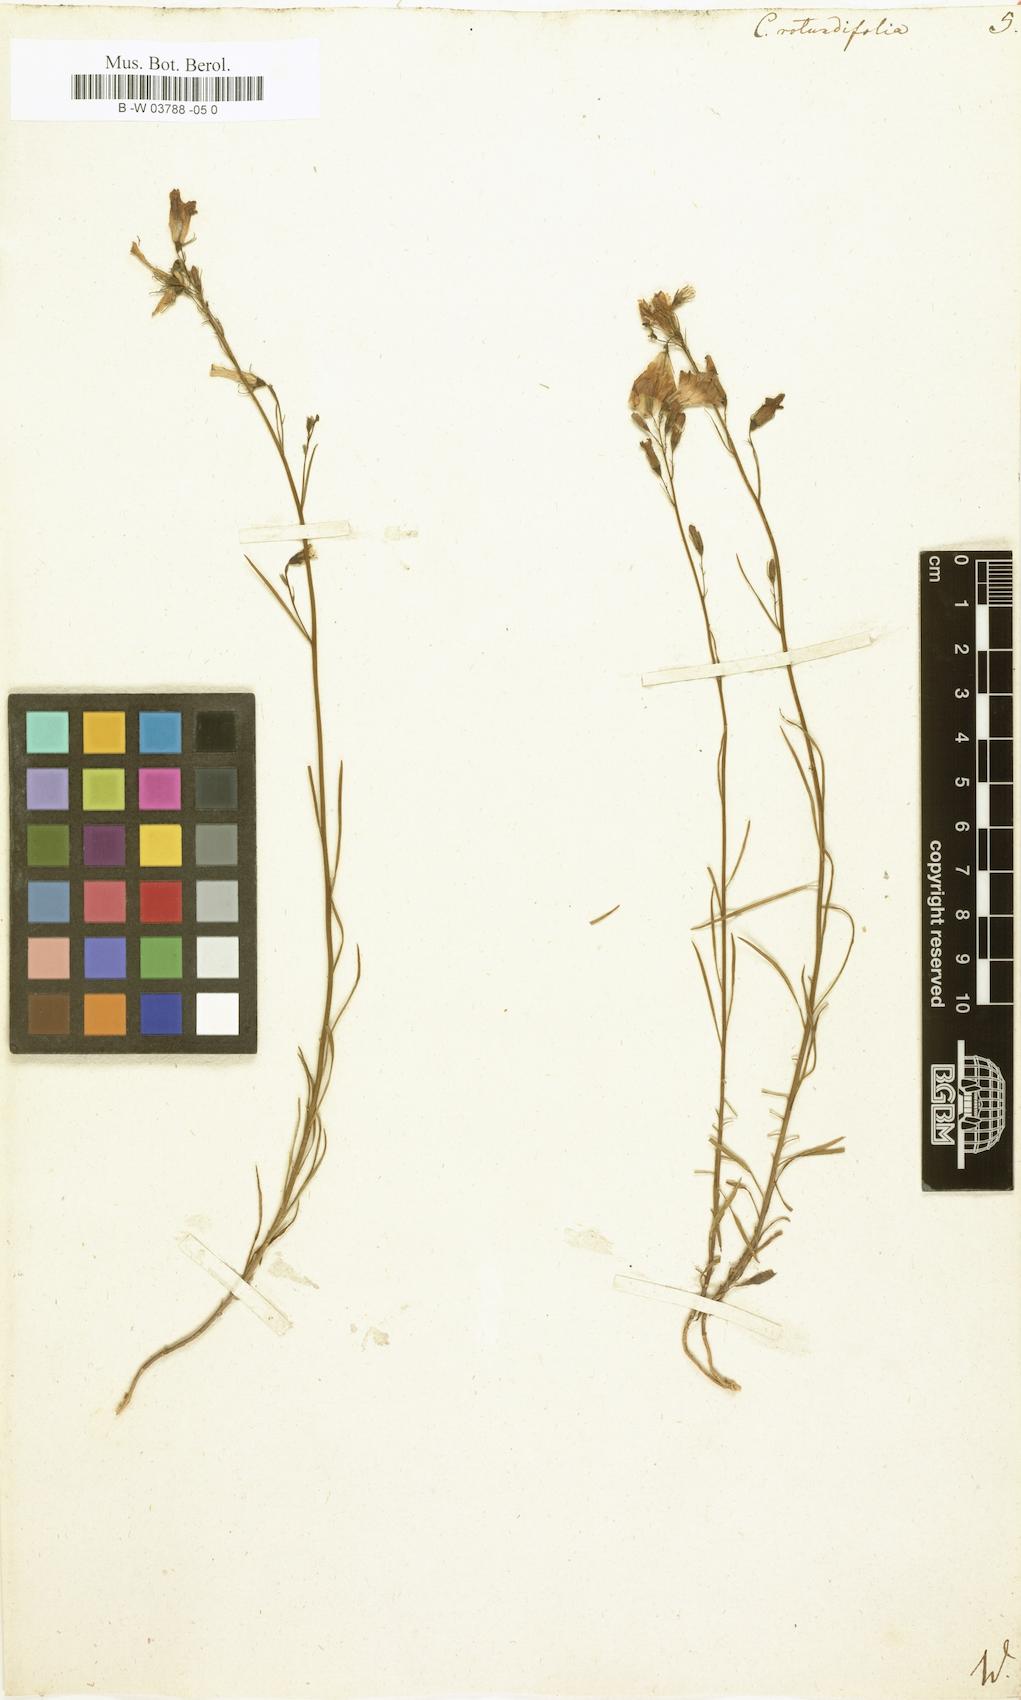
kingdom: Plantae
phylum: Tracheophyta
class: Magnoliopsida
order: Asterales
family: Campanulaceae
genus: Campanula
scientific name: Campanula rotundifolia
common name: Harebell
